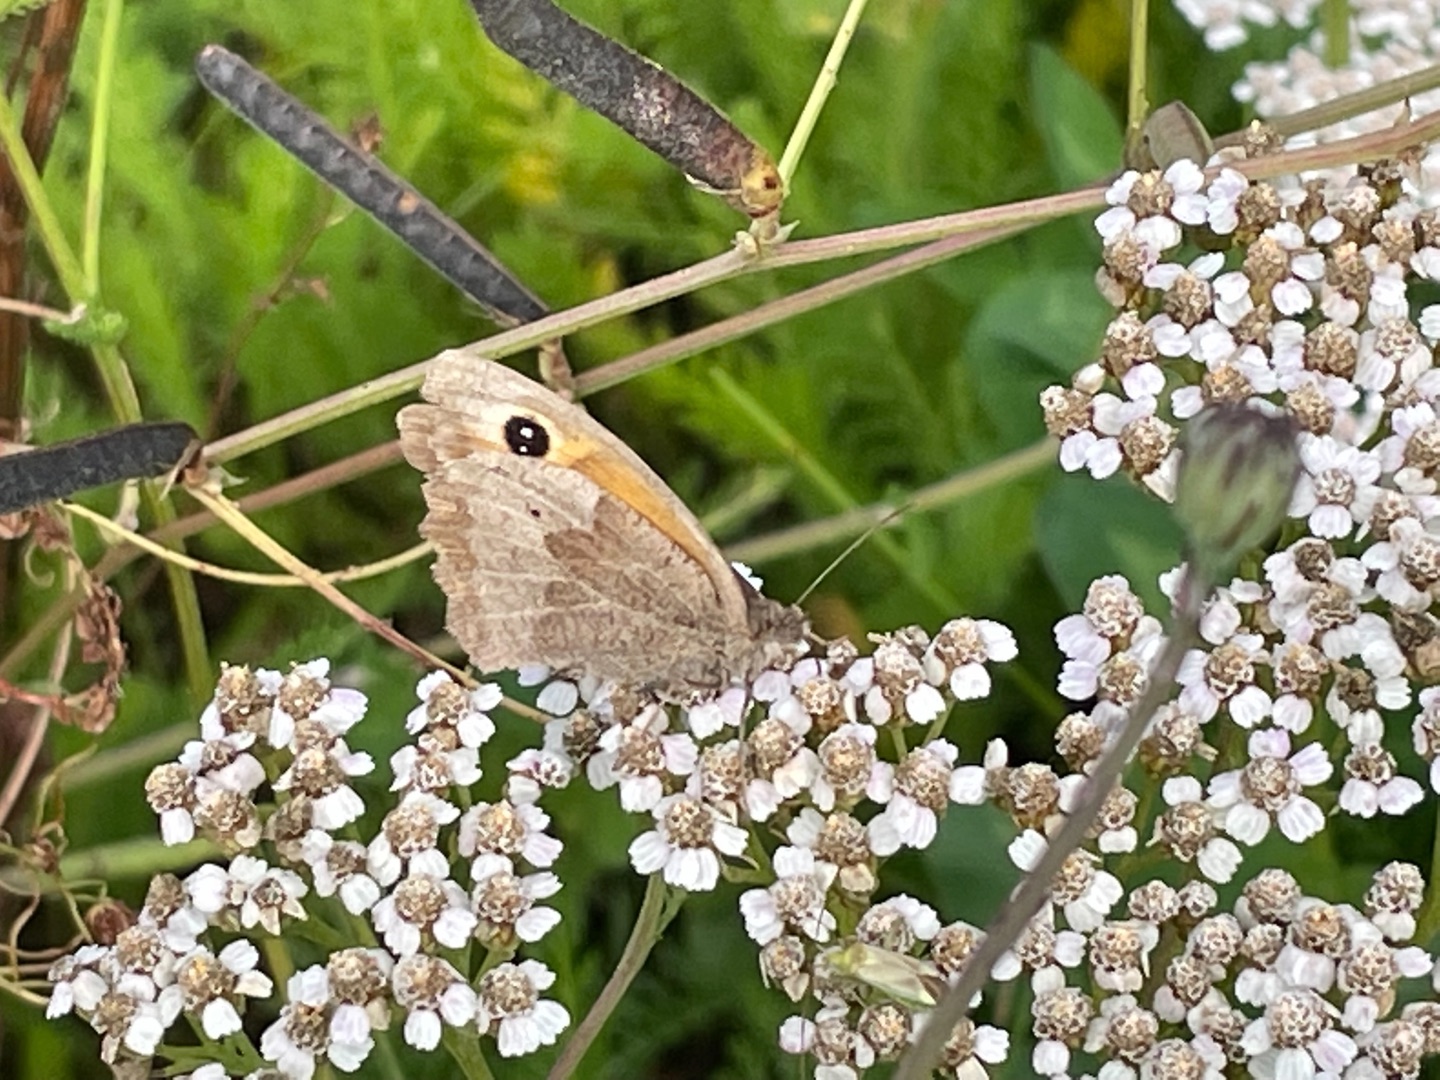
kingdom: Animalia
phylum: Arthropoda
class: Insecta
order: Lepidoptera
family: Nymphalidae
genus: Maniola
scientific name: Maniola jurtina
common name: Græsrandøje
